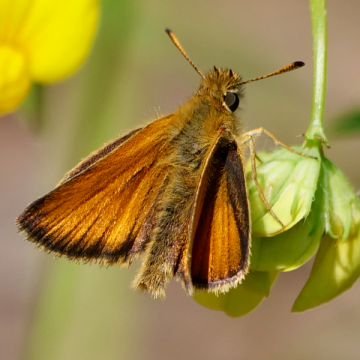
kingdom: Animalia
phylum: Arthropoda
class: Insecta
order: Lepidoptera
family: Hesperiidae
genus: Thymelicus
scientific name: Thymelicus lineola
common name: European Skipper
